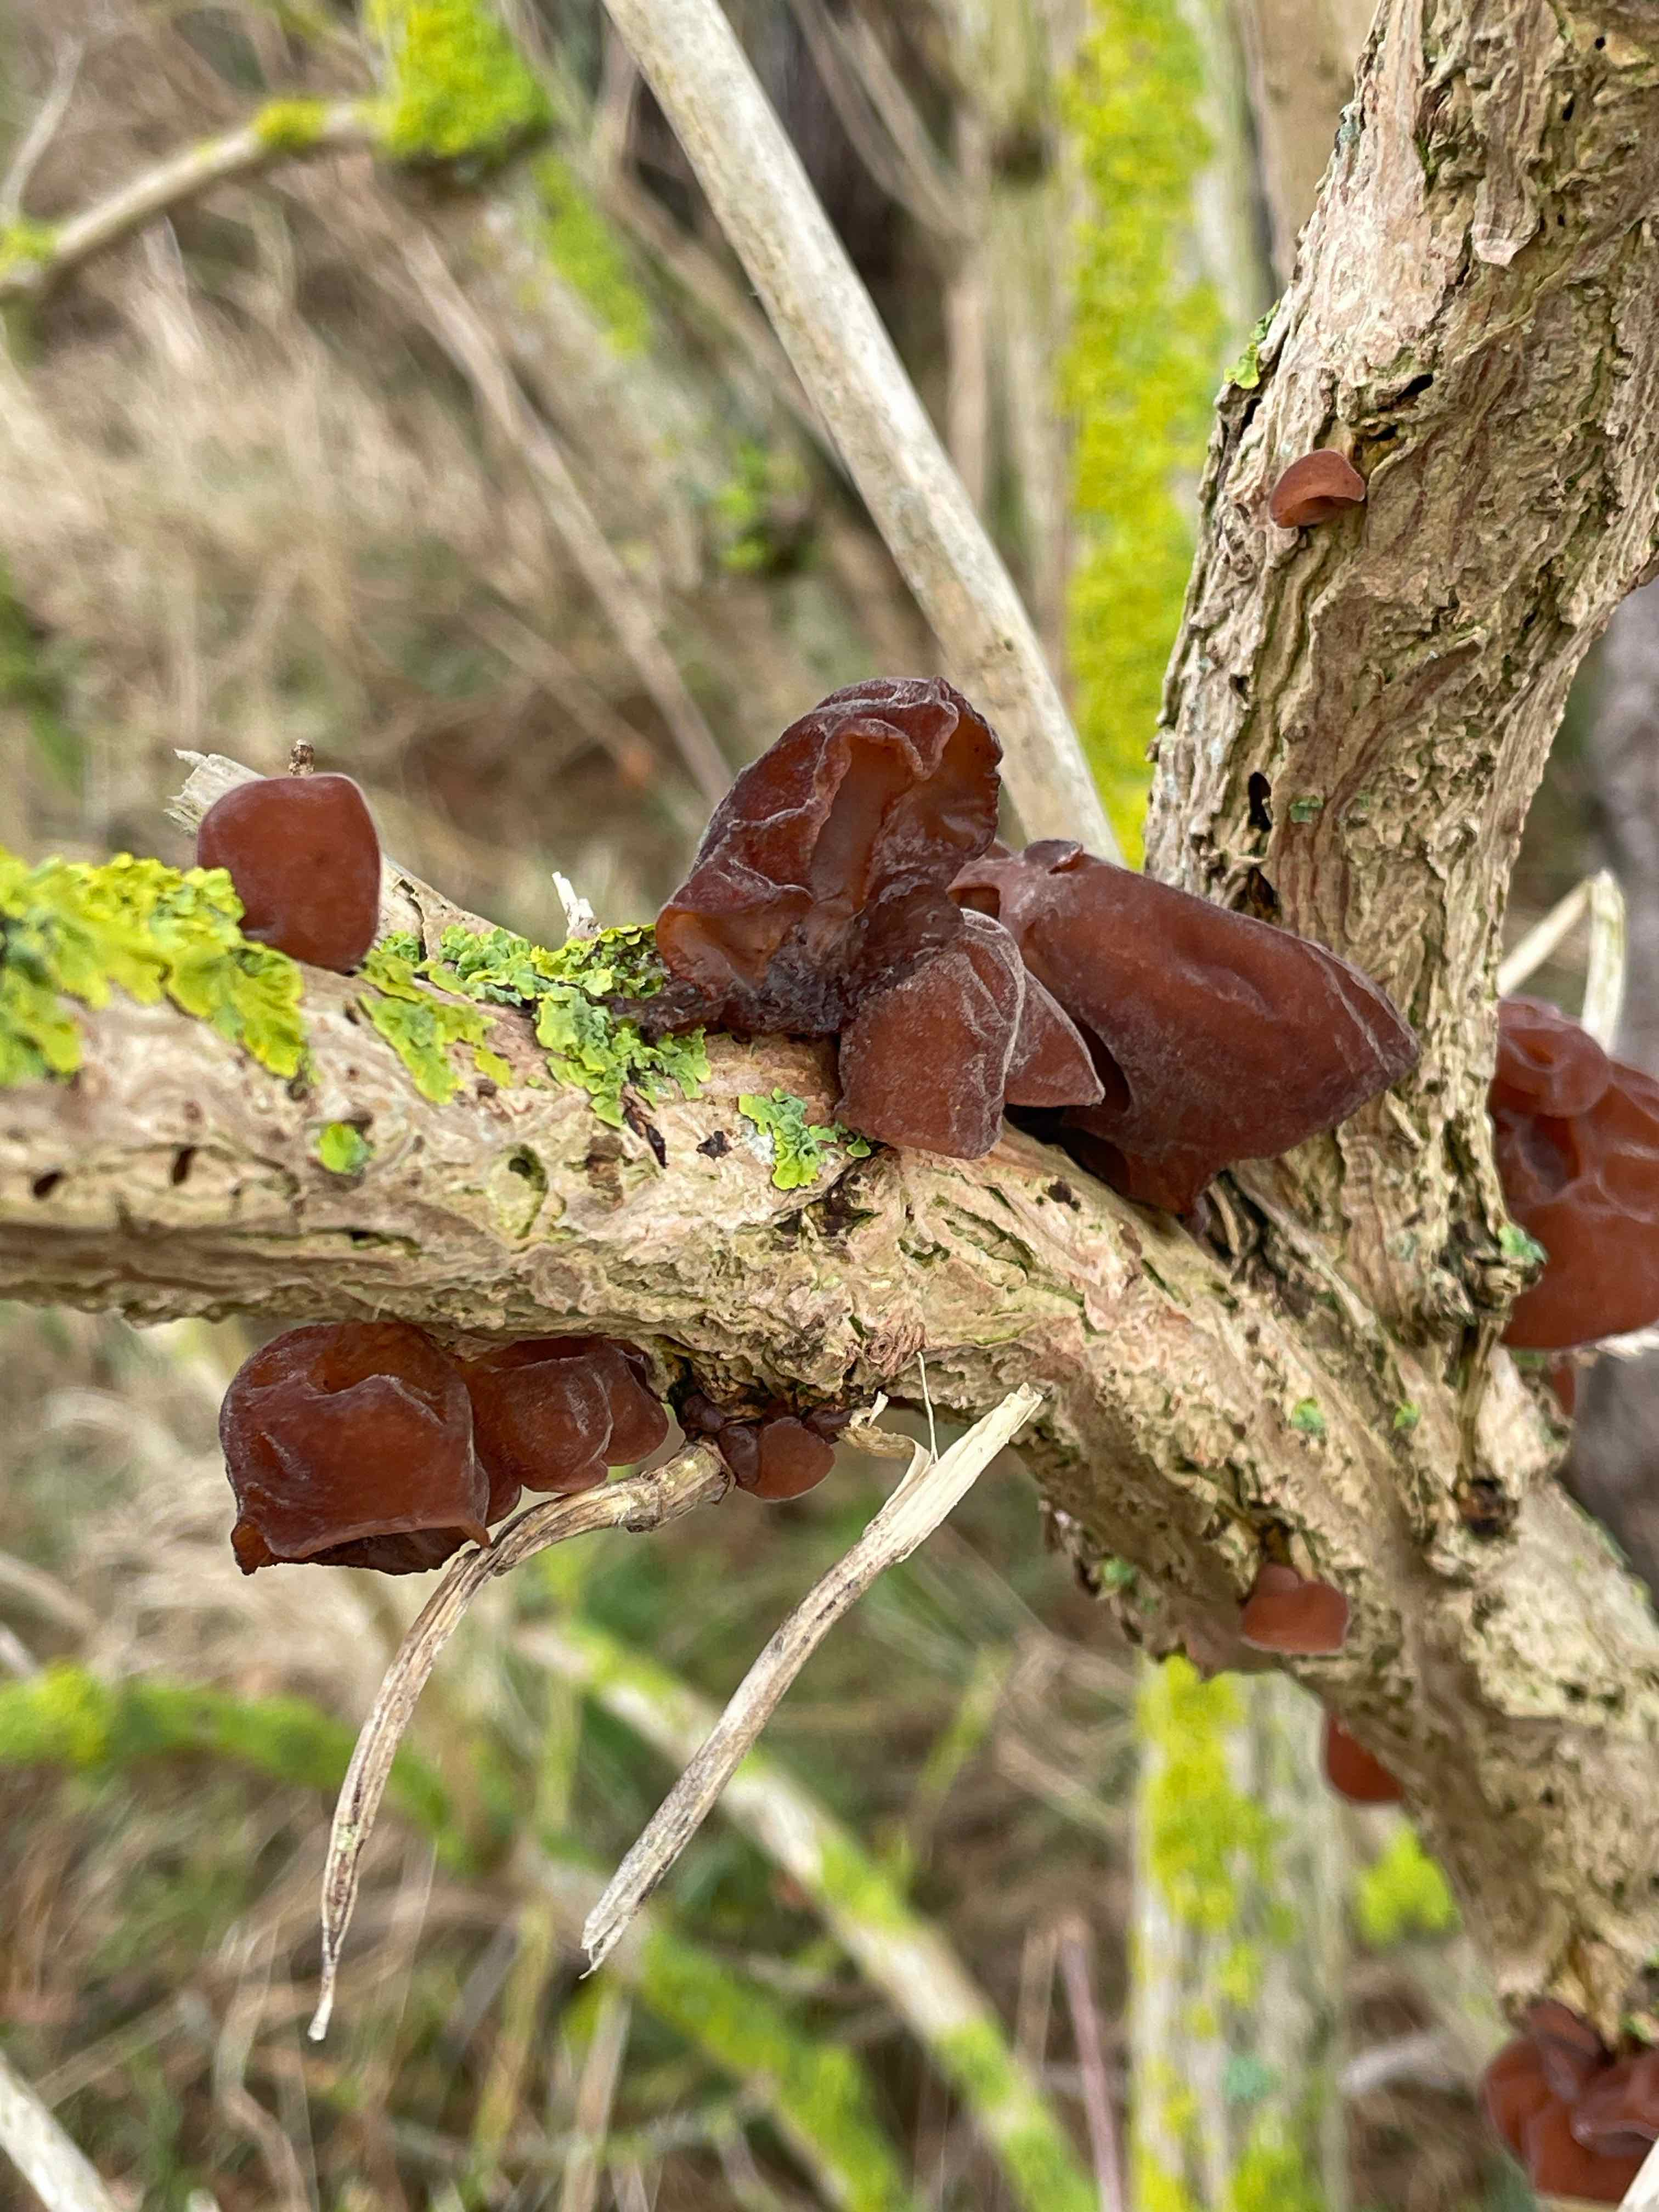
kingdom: Fungi
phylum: Basidiomycota
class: Agaricomycetes
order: Auriculariales
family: Auriculariaceae
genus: Auricularia
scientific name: Auricularia auricula-judae
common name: almindelig judasøre
